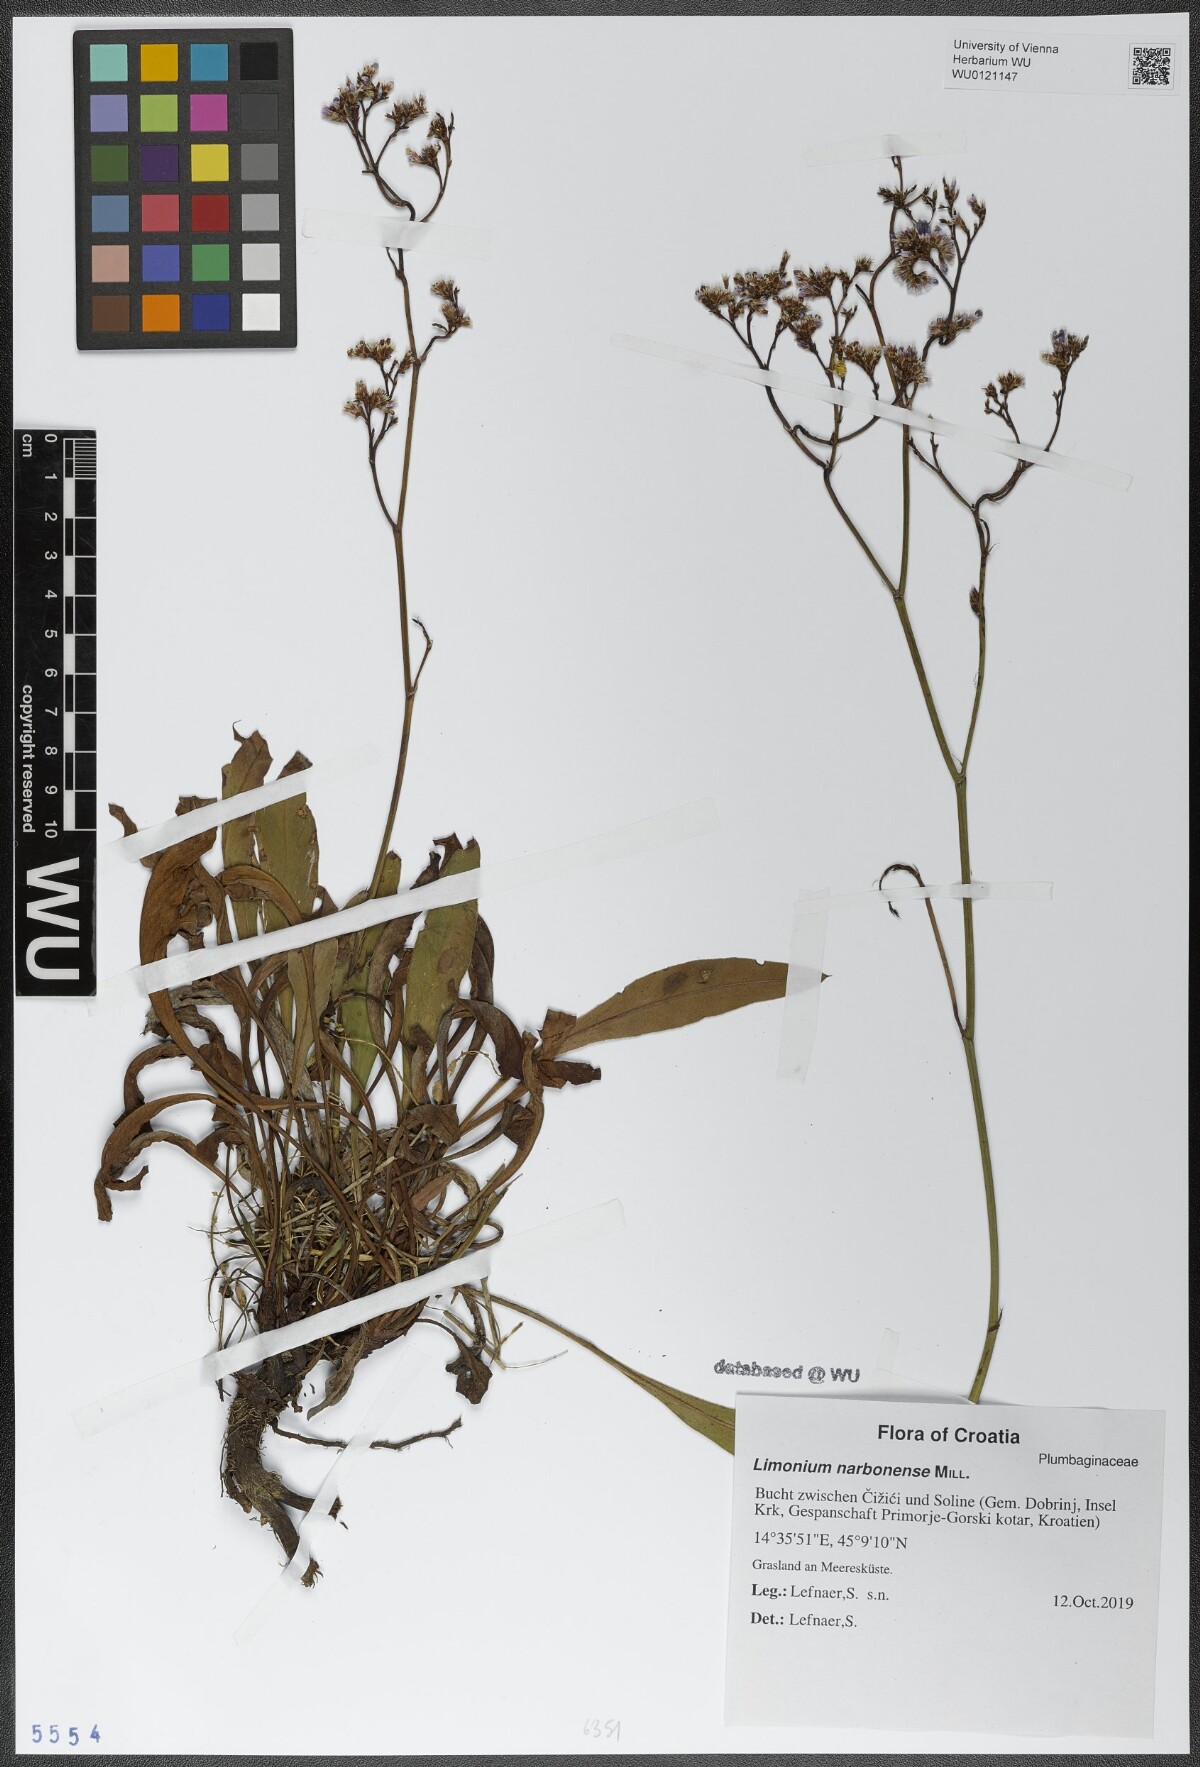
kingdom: Plantae
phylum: Tracheophyta
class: Magnoliopsida
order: Caryophyllales
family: Plumbaginaceae
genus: Limonium
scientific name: Limonium narbonense
